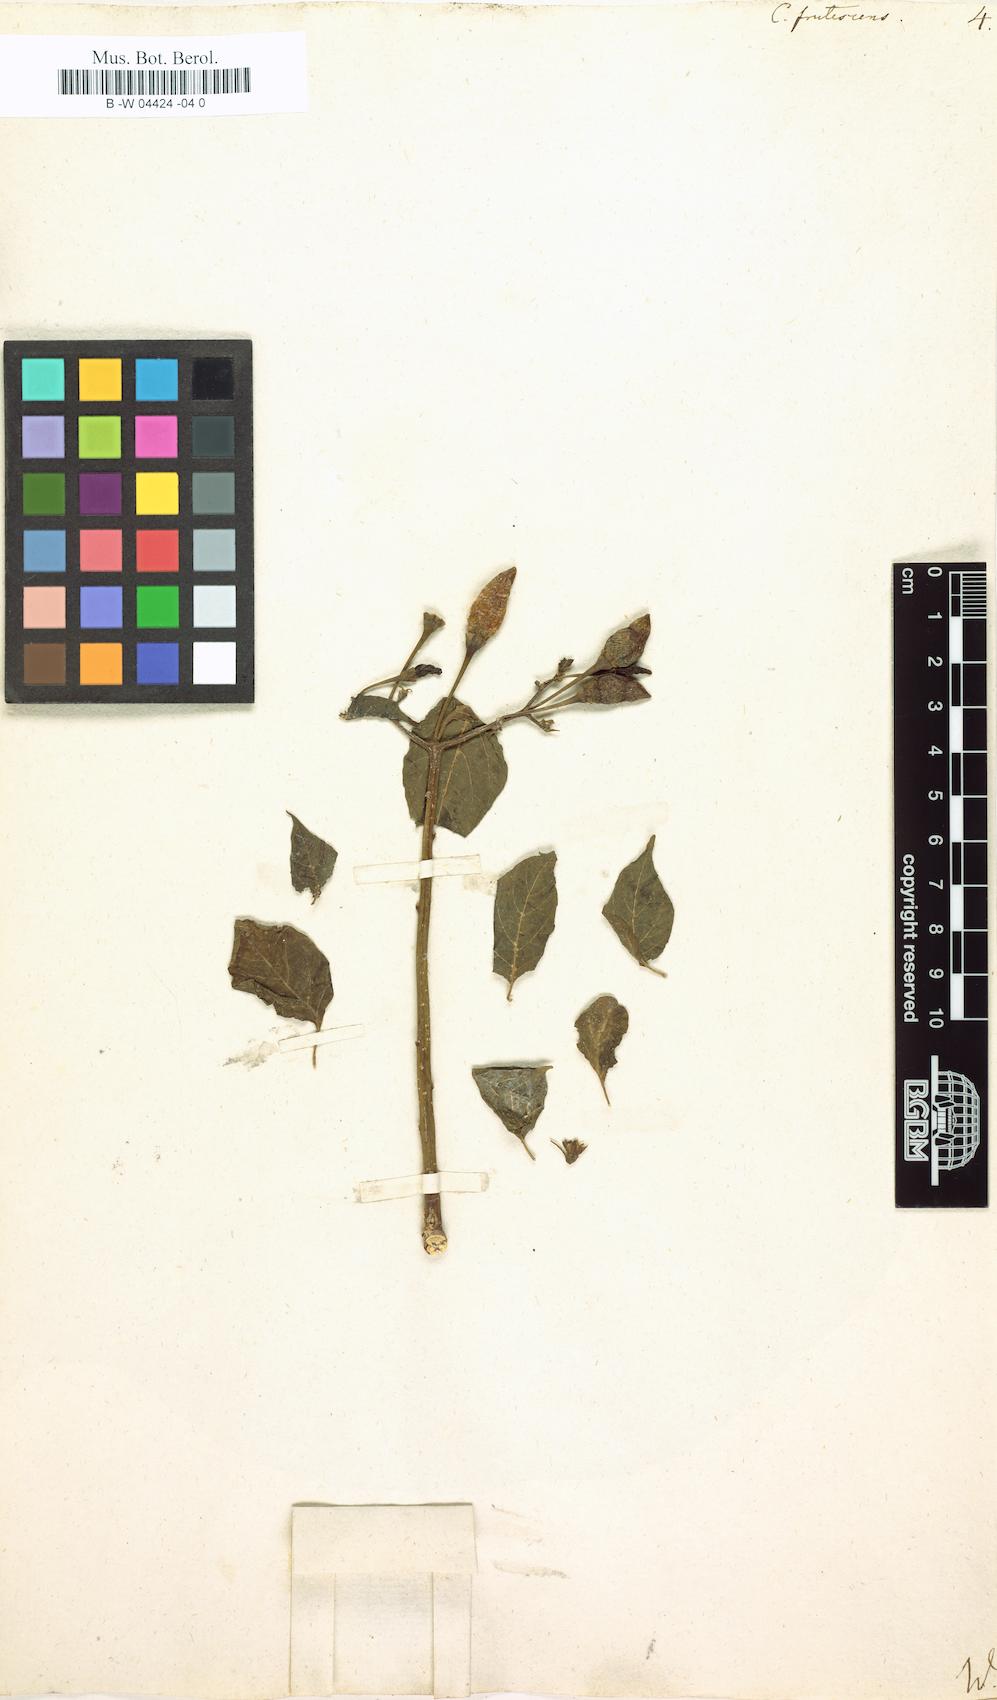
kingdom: Plantae
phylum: Tracheophyta
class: Magnoliopsida
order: Solanales
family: Solanaceae
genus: Capsicum
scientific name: Capsicum frutescens
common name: Bird pepper
